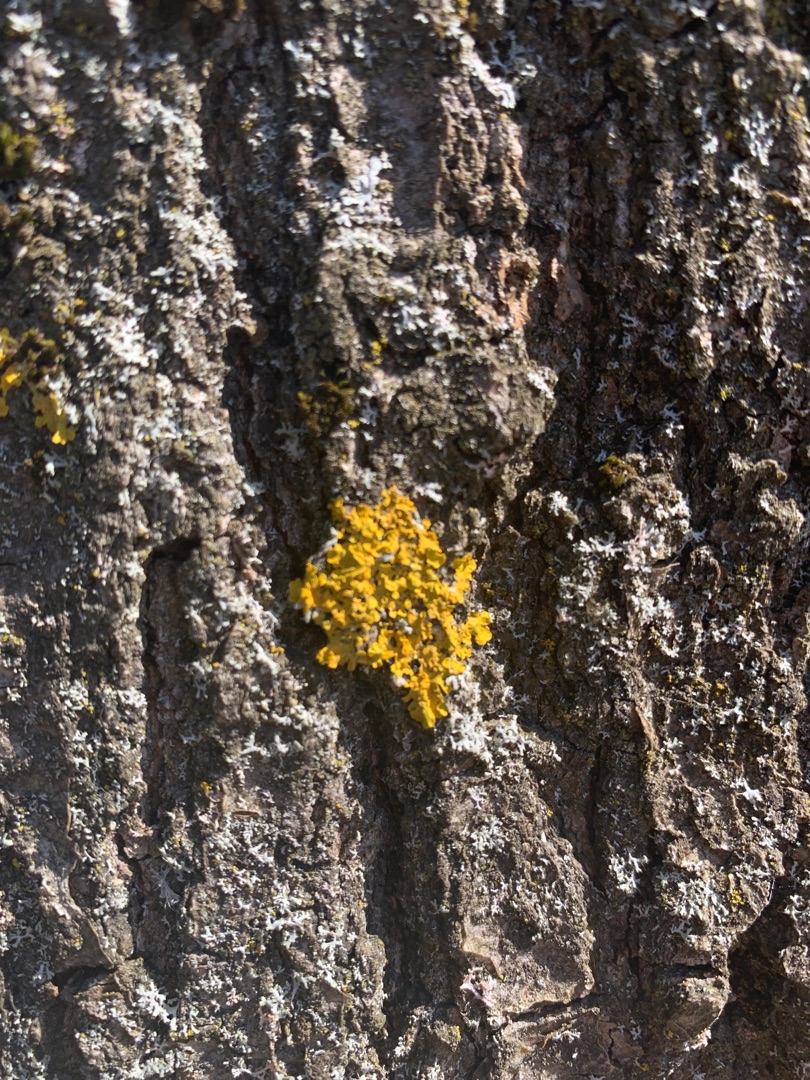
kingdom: Fungi
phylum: Ascomycota
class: Lecanoromycetes
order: Teloschistales
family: Teloschistaceae
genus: Xanthoria
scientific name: Xanthoria parietina
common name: Almindelig væggelav
